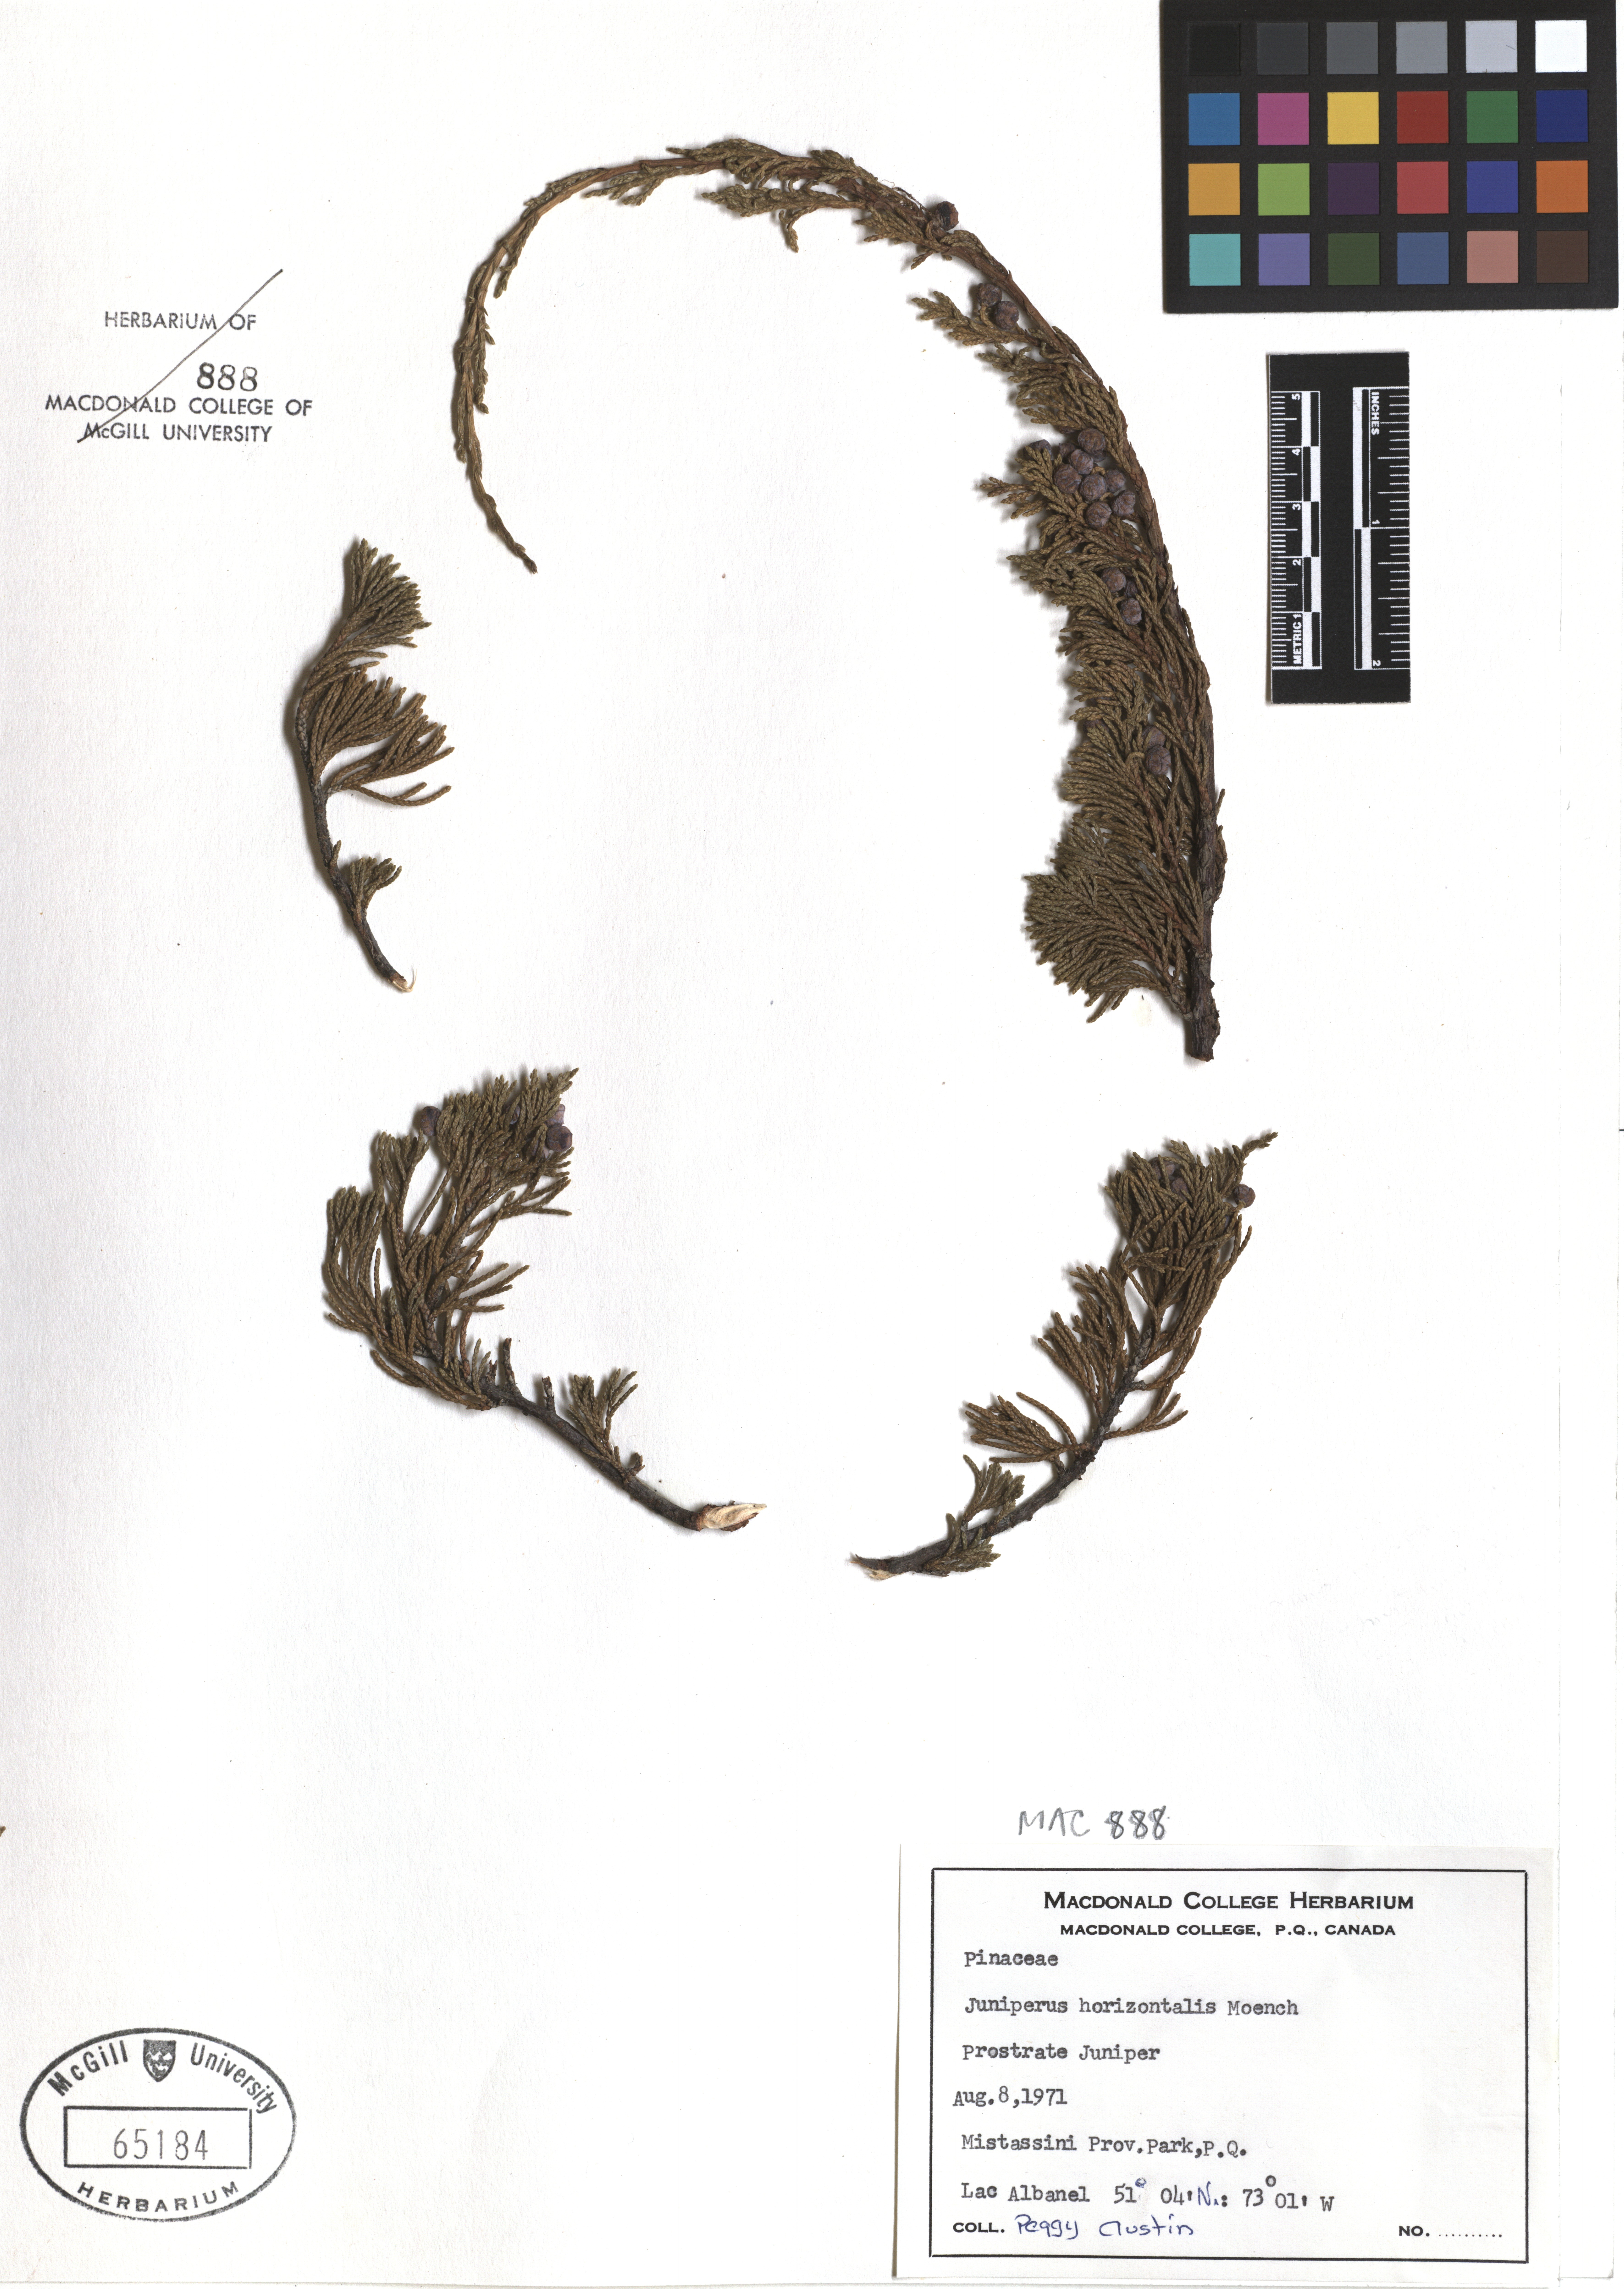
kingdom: Plantae
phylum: Tracheophyta
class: Pinopsida
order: Pinales
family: Cupressaceae
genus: Juniperus
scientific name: Juniperus horizontalis
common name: Creeping juniper
